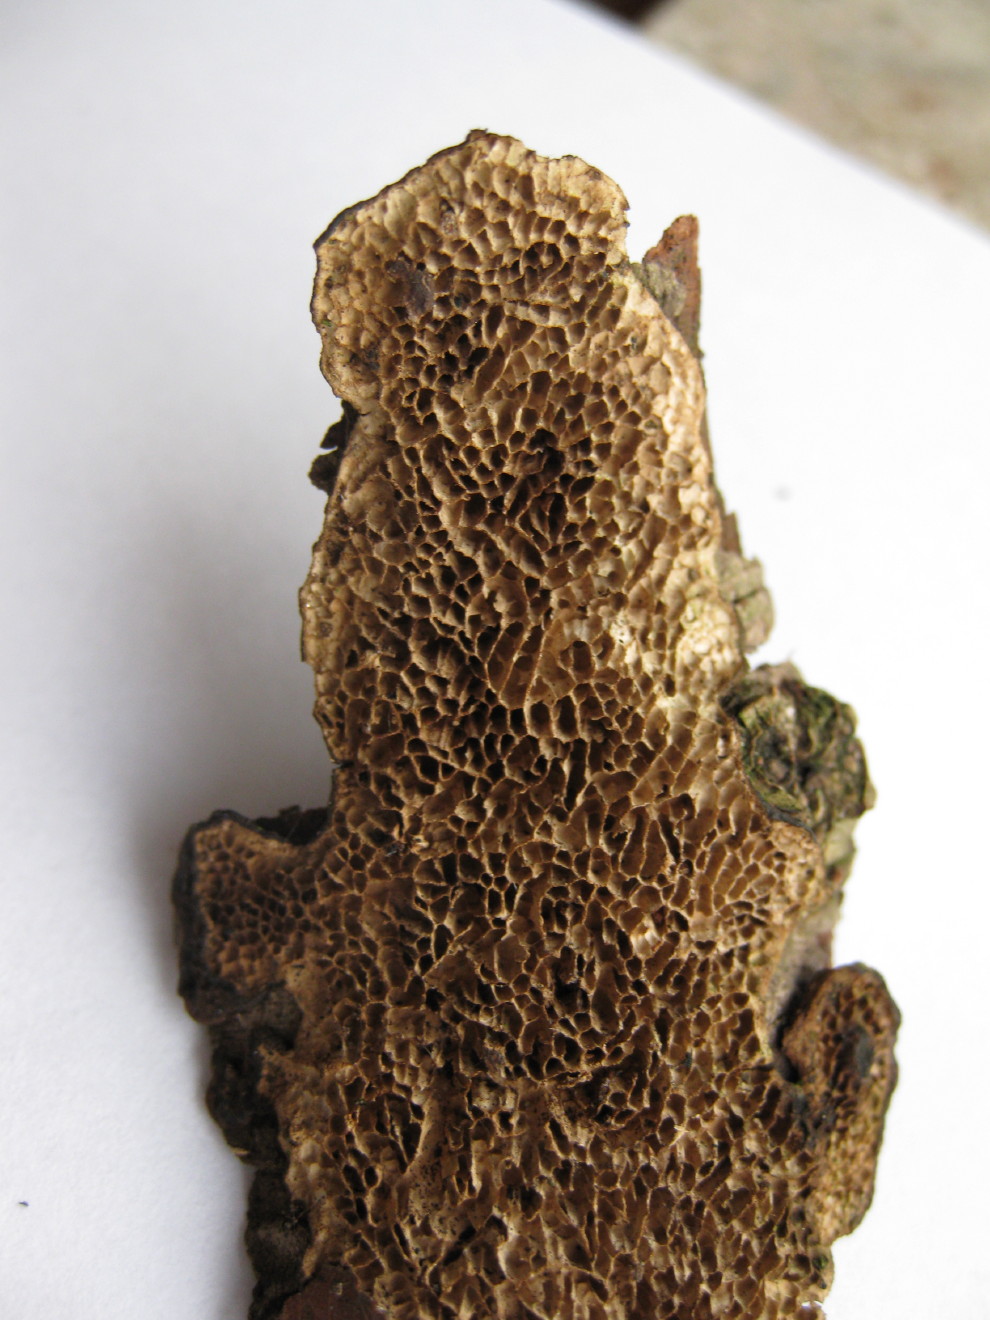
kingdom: Fungi
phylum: Basidiomycota
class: Agaricomycetes
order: Polyporales
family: Polyporaceae
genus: Podofomes
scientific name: Podofomes mollis
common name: blød begporesvamp
